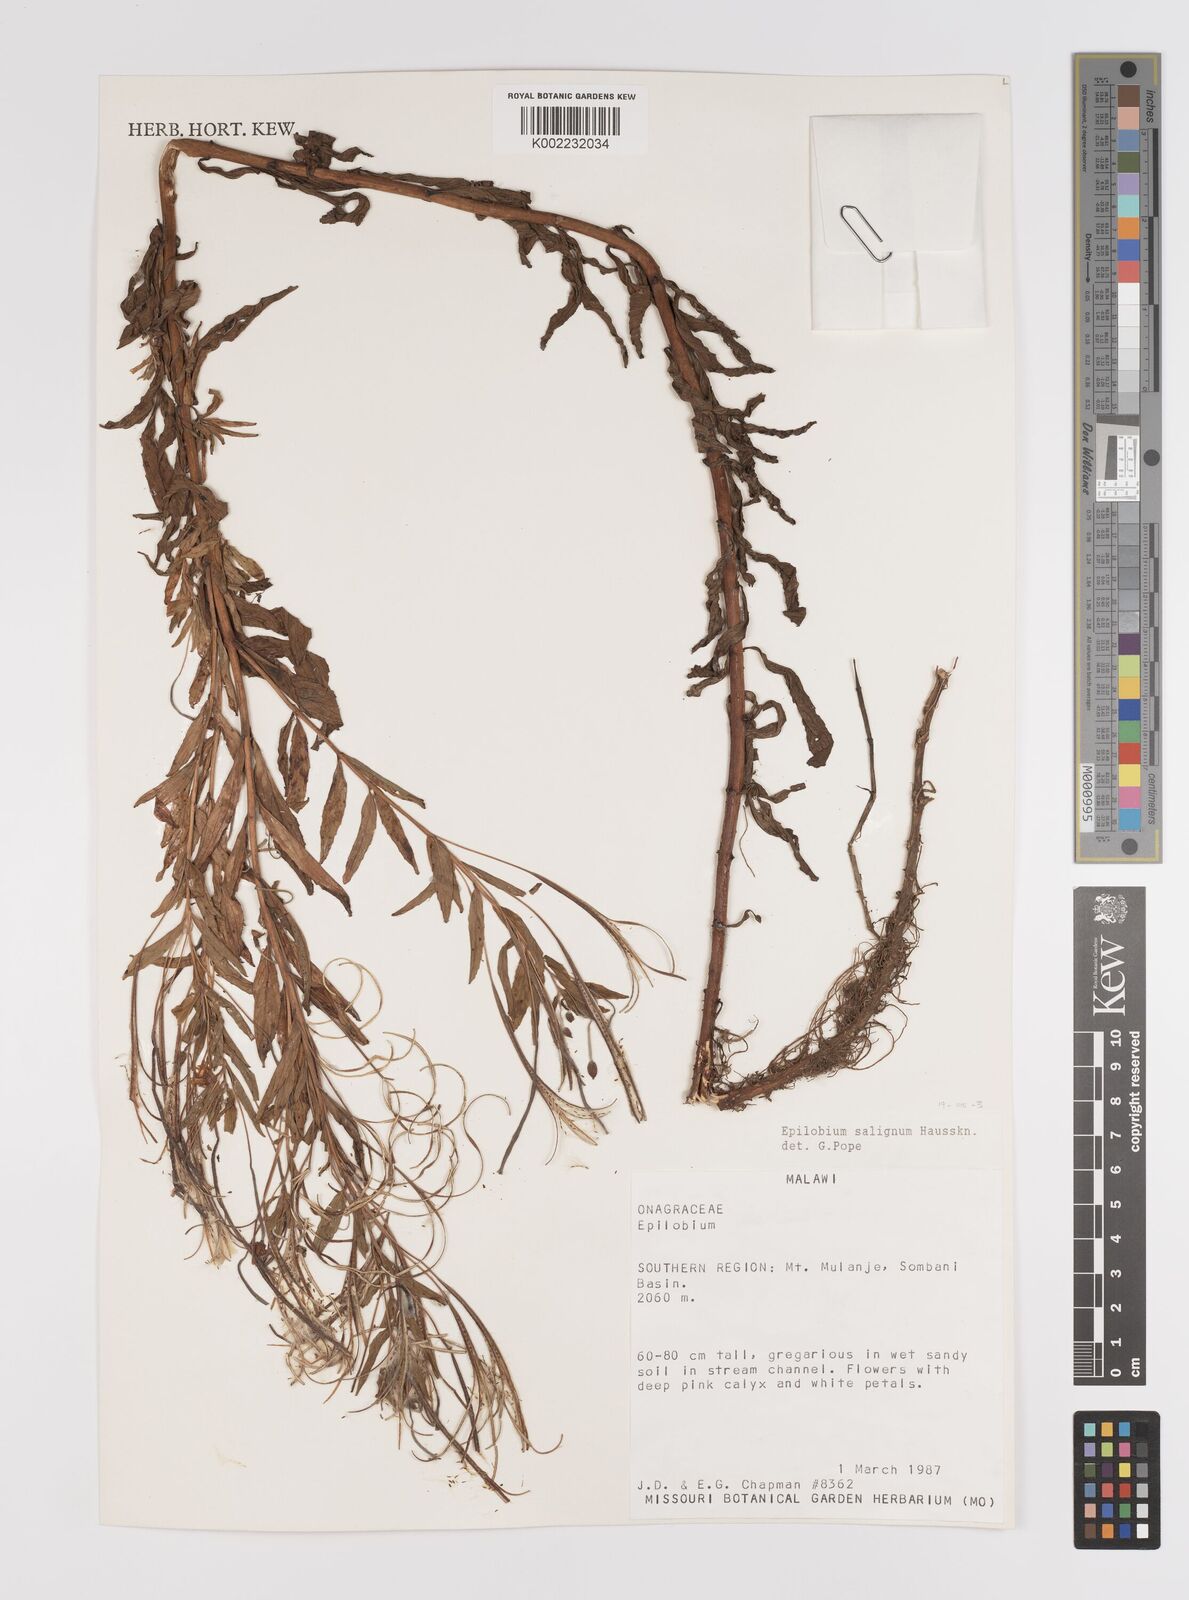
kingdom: Plantae
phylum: Tracheophyta
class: Magnoliopsida
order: Myrtales
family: Onagraceae
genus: Epilobium
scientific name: Epilobium salignum
